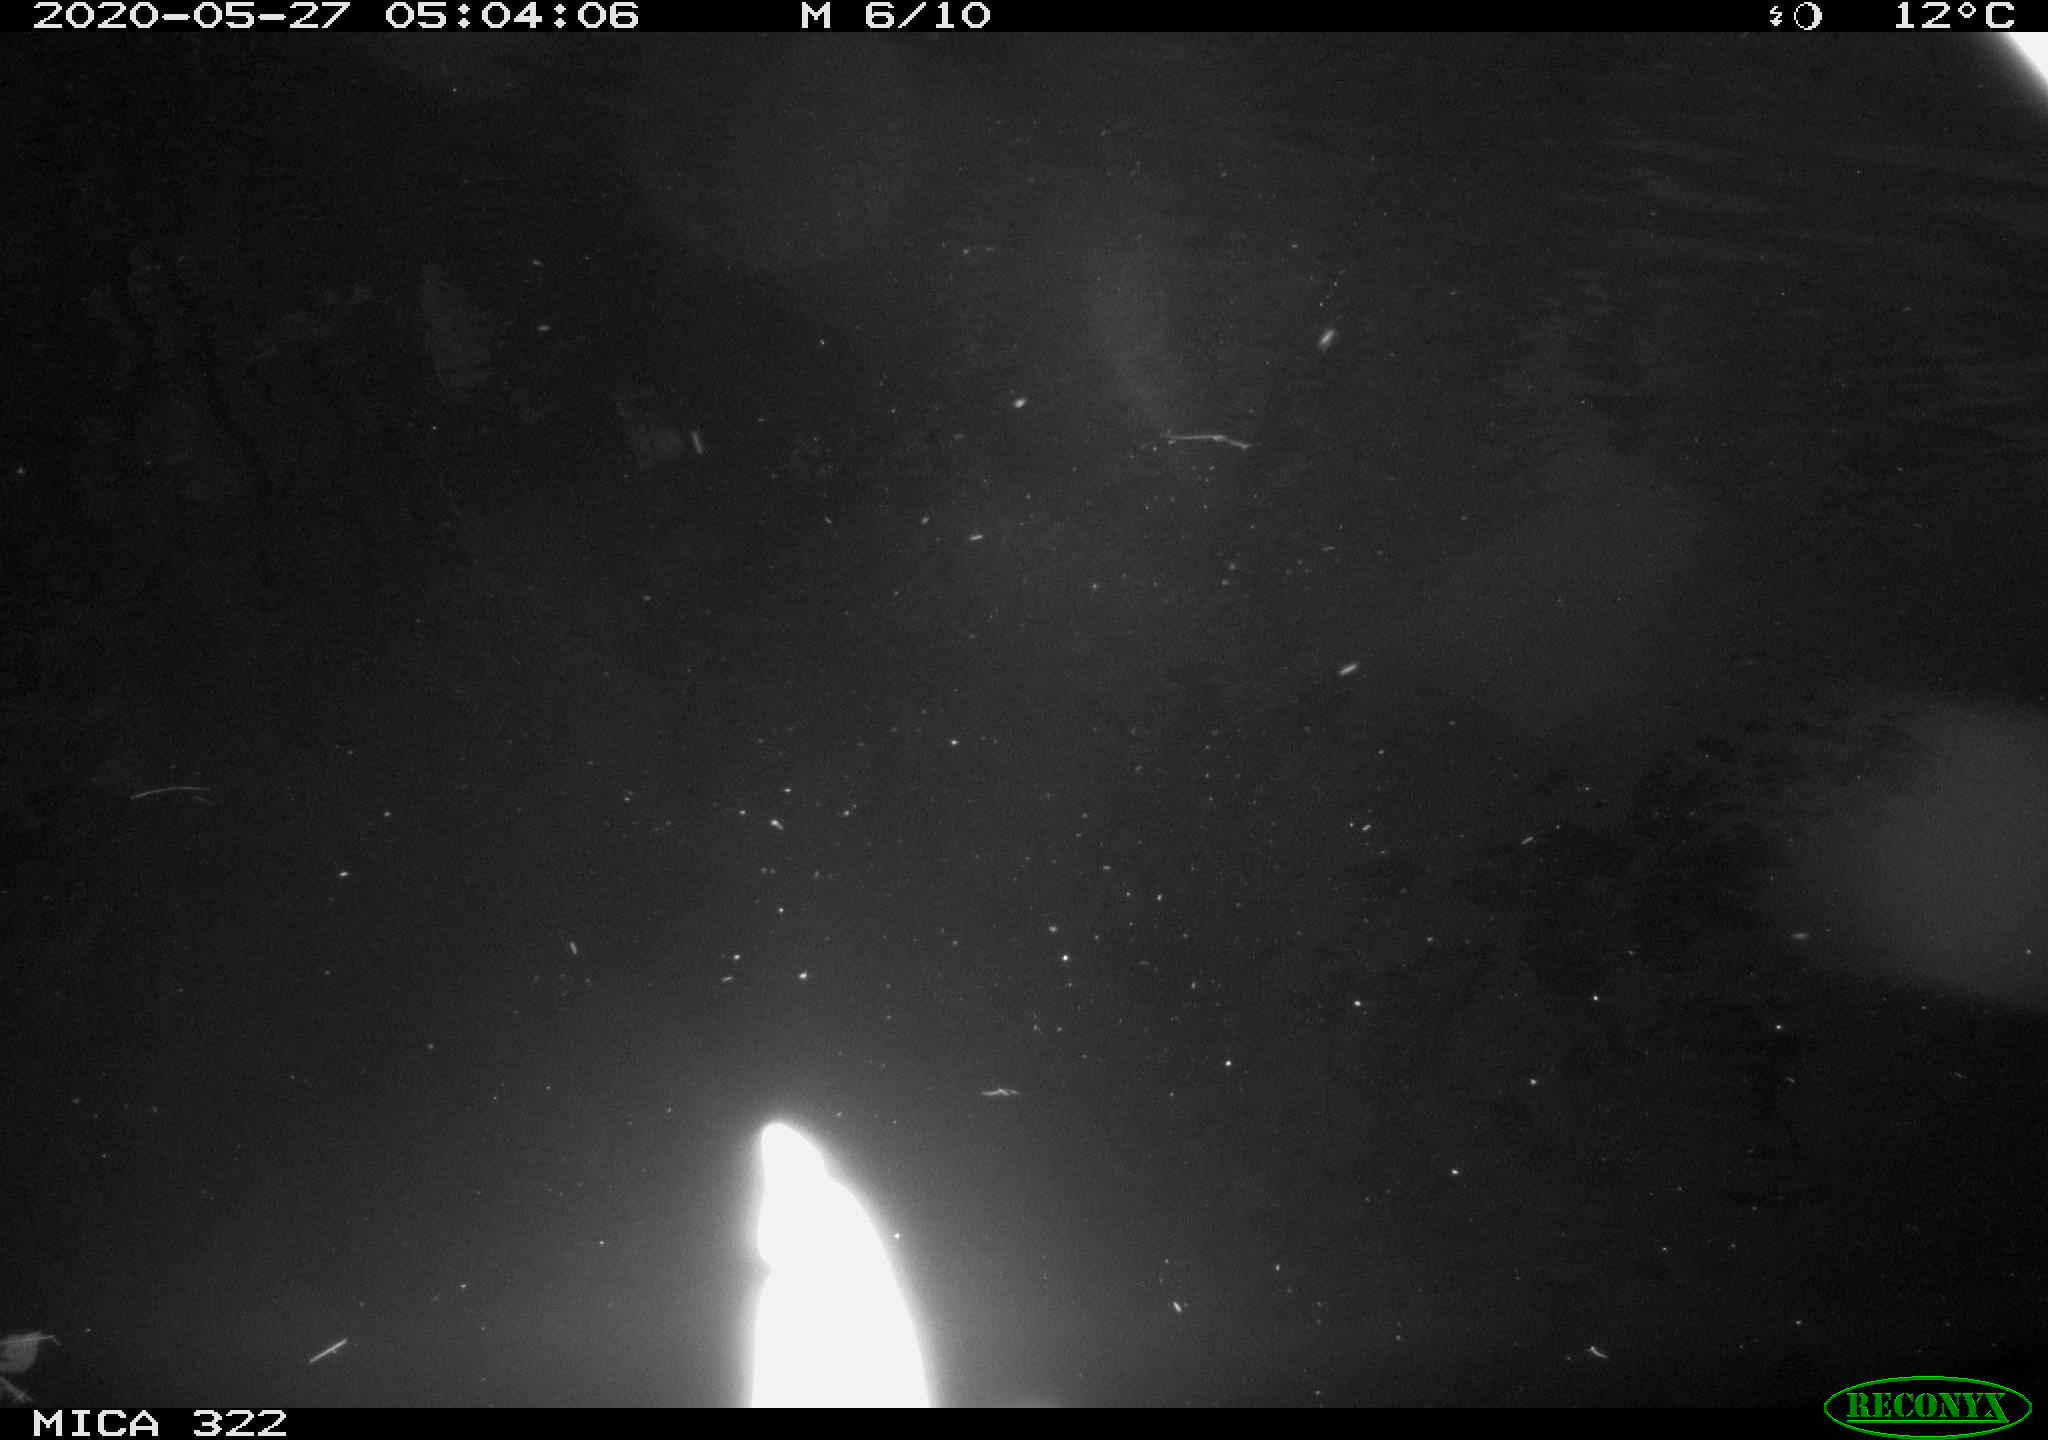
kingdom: Animalia
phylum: Chordata
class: Aves
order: Anseriformes
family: Anatidae
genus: Anas
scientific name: Anas platyrhynchos
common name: Mallard
